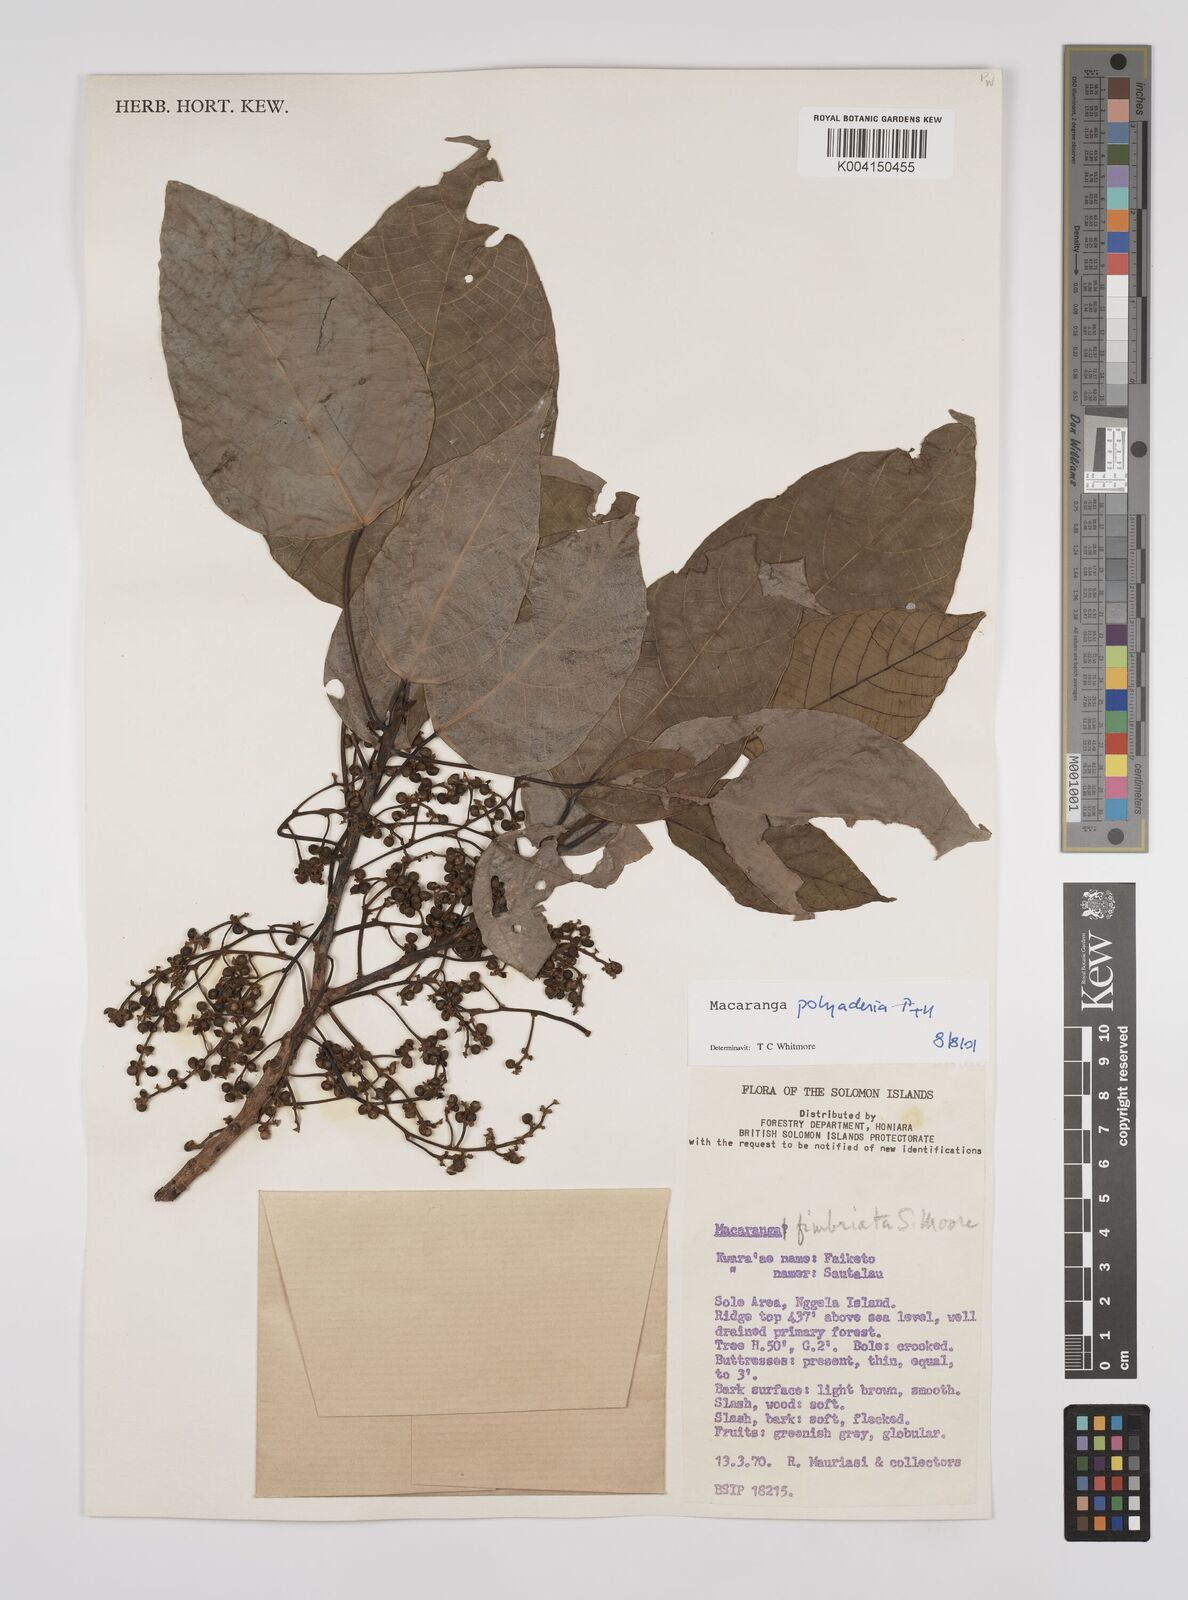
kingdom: Plantae
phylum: Tracheophyta
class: Magnoliopsida
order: Malpighiales
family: Euphorbiaceae
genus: Macaranga
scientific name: Macaranga polyadenia
